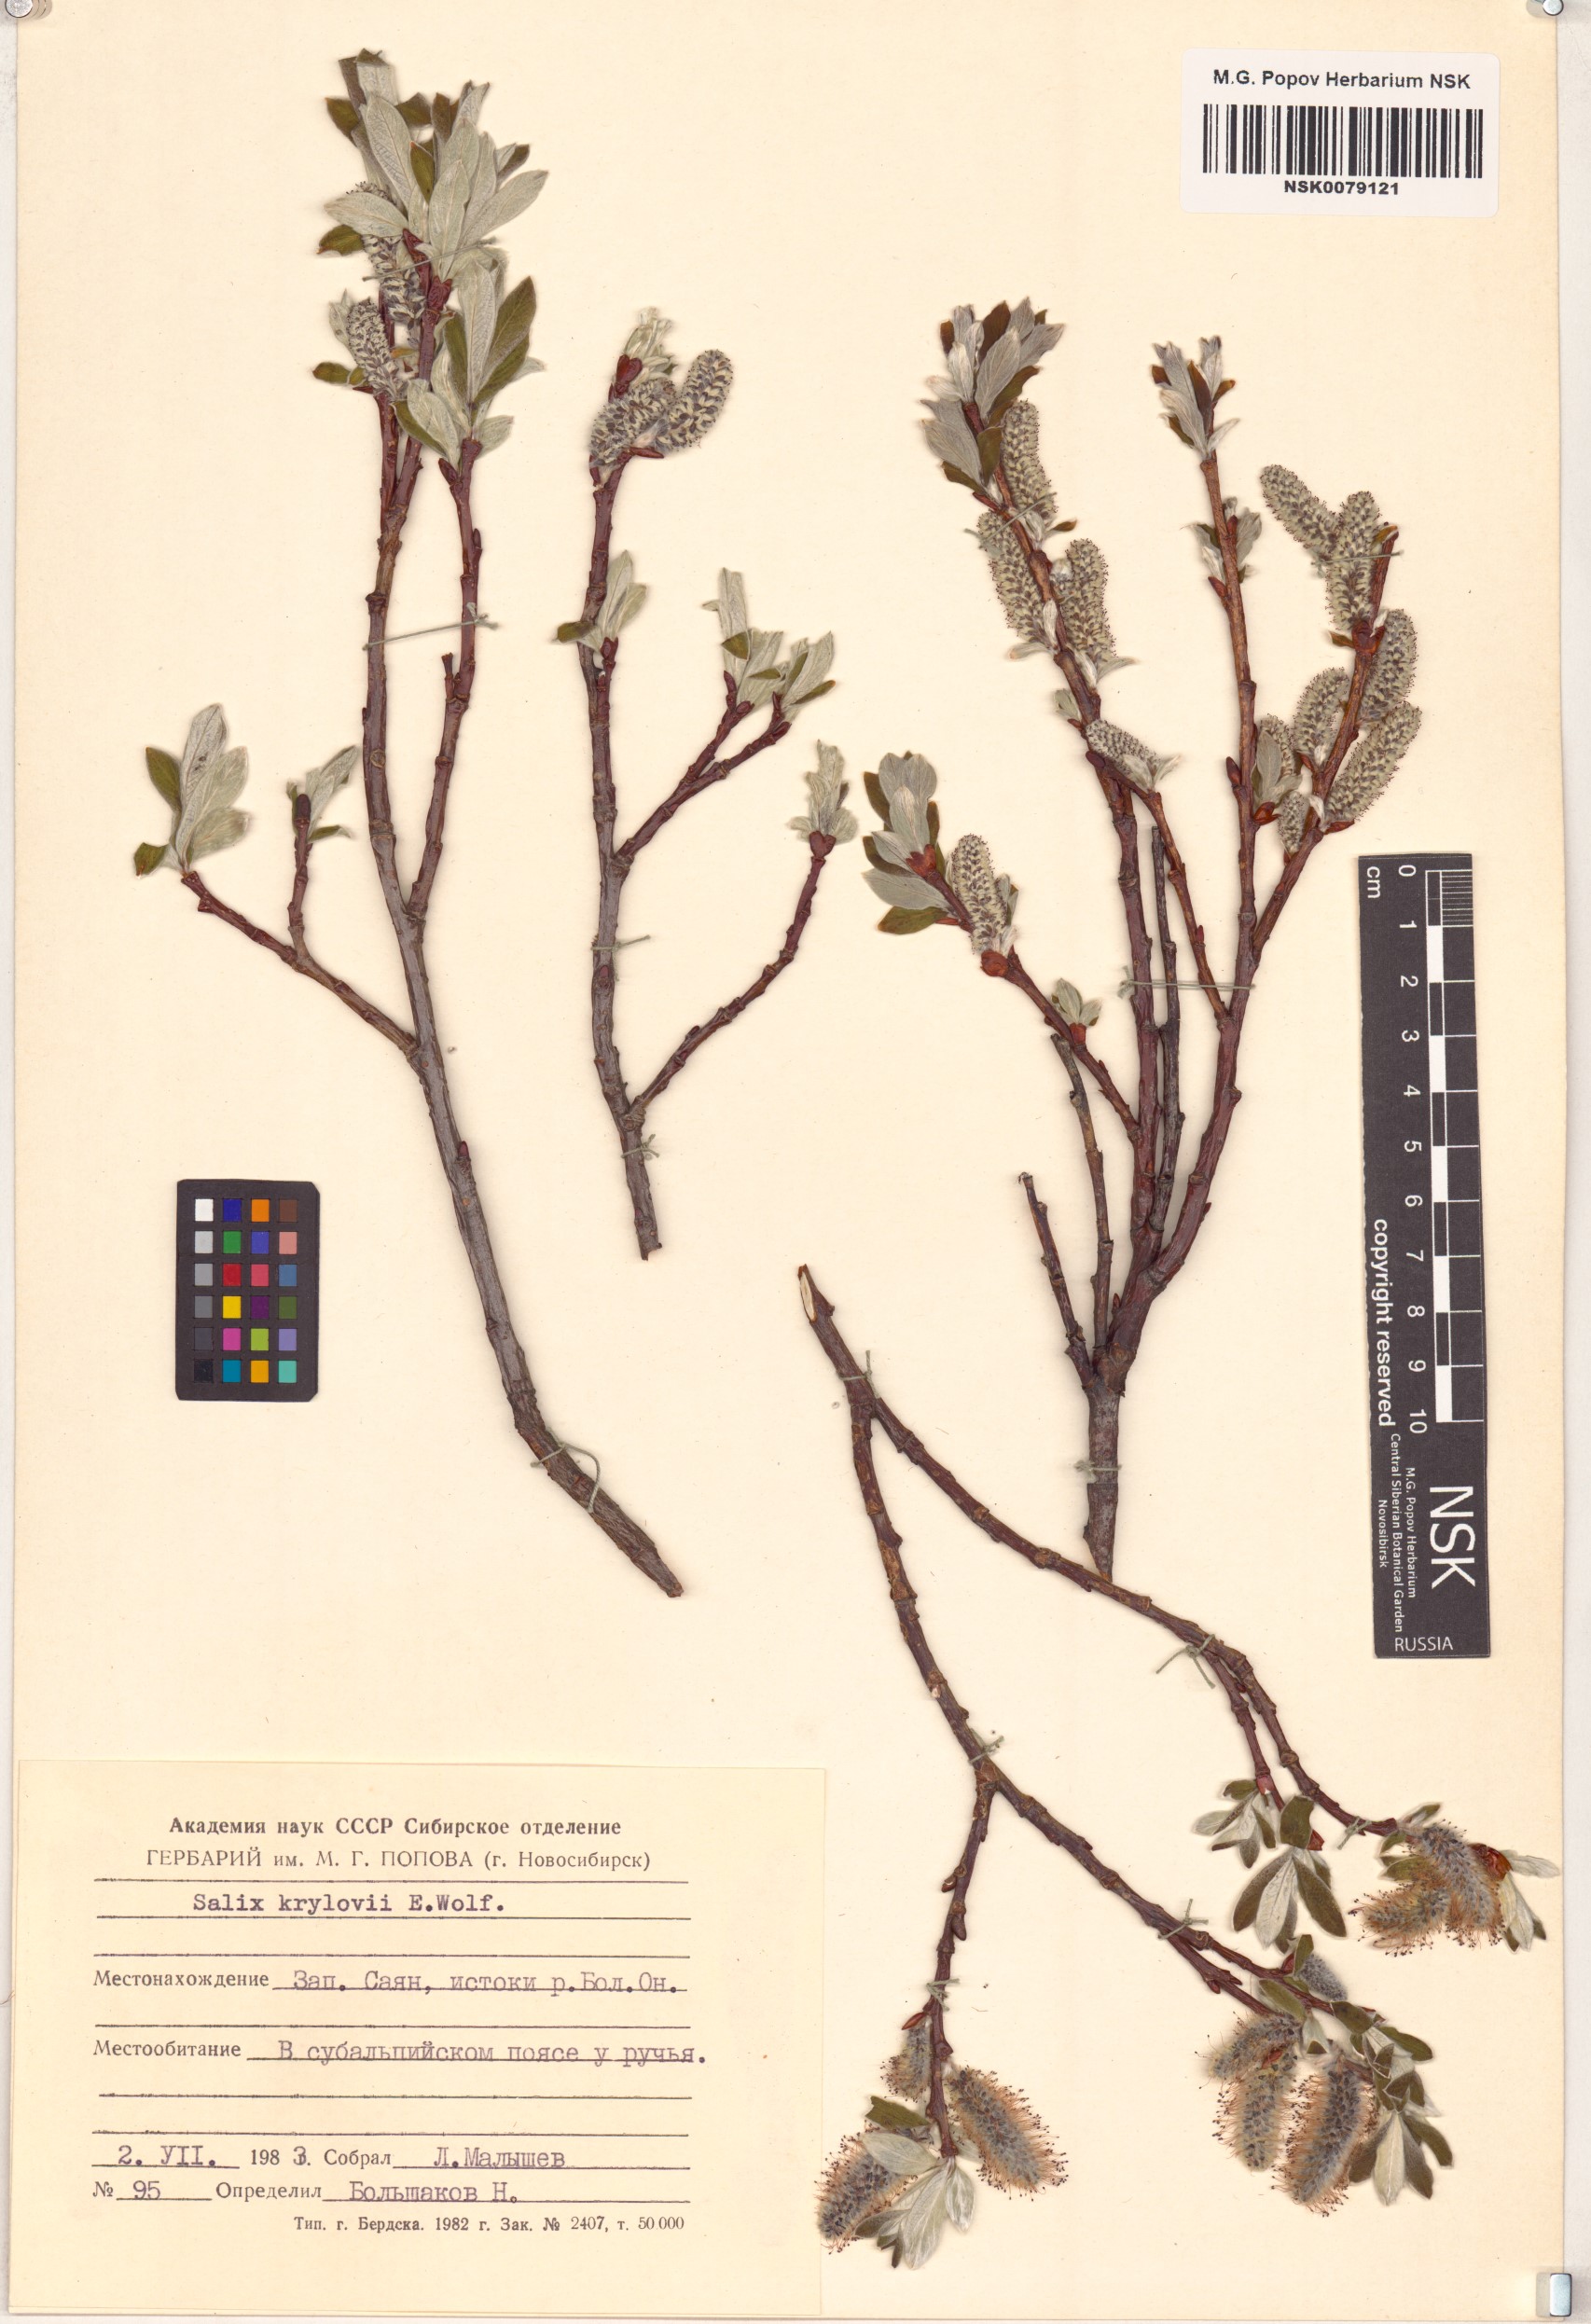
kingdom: Plantae
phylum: Tracheophyta
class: Magnoliopsida
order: Malpighiales
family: Salicaceae
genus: Salix
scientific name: Salix krylovii
